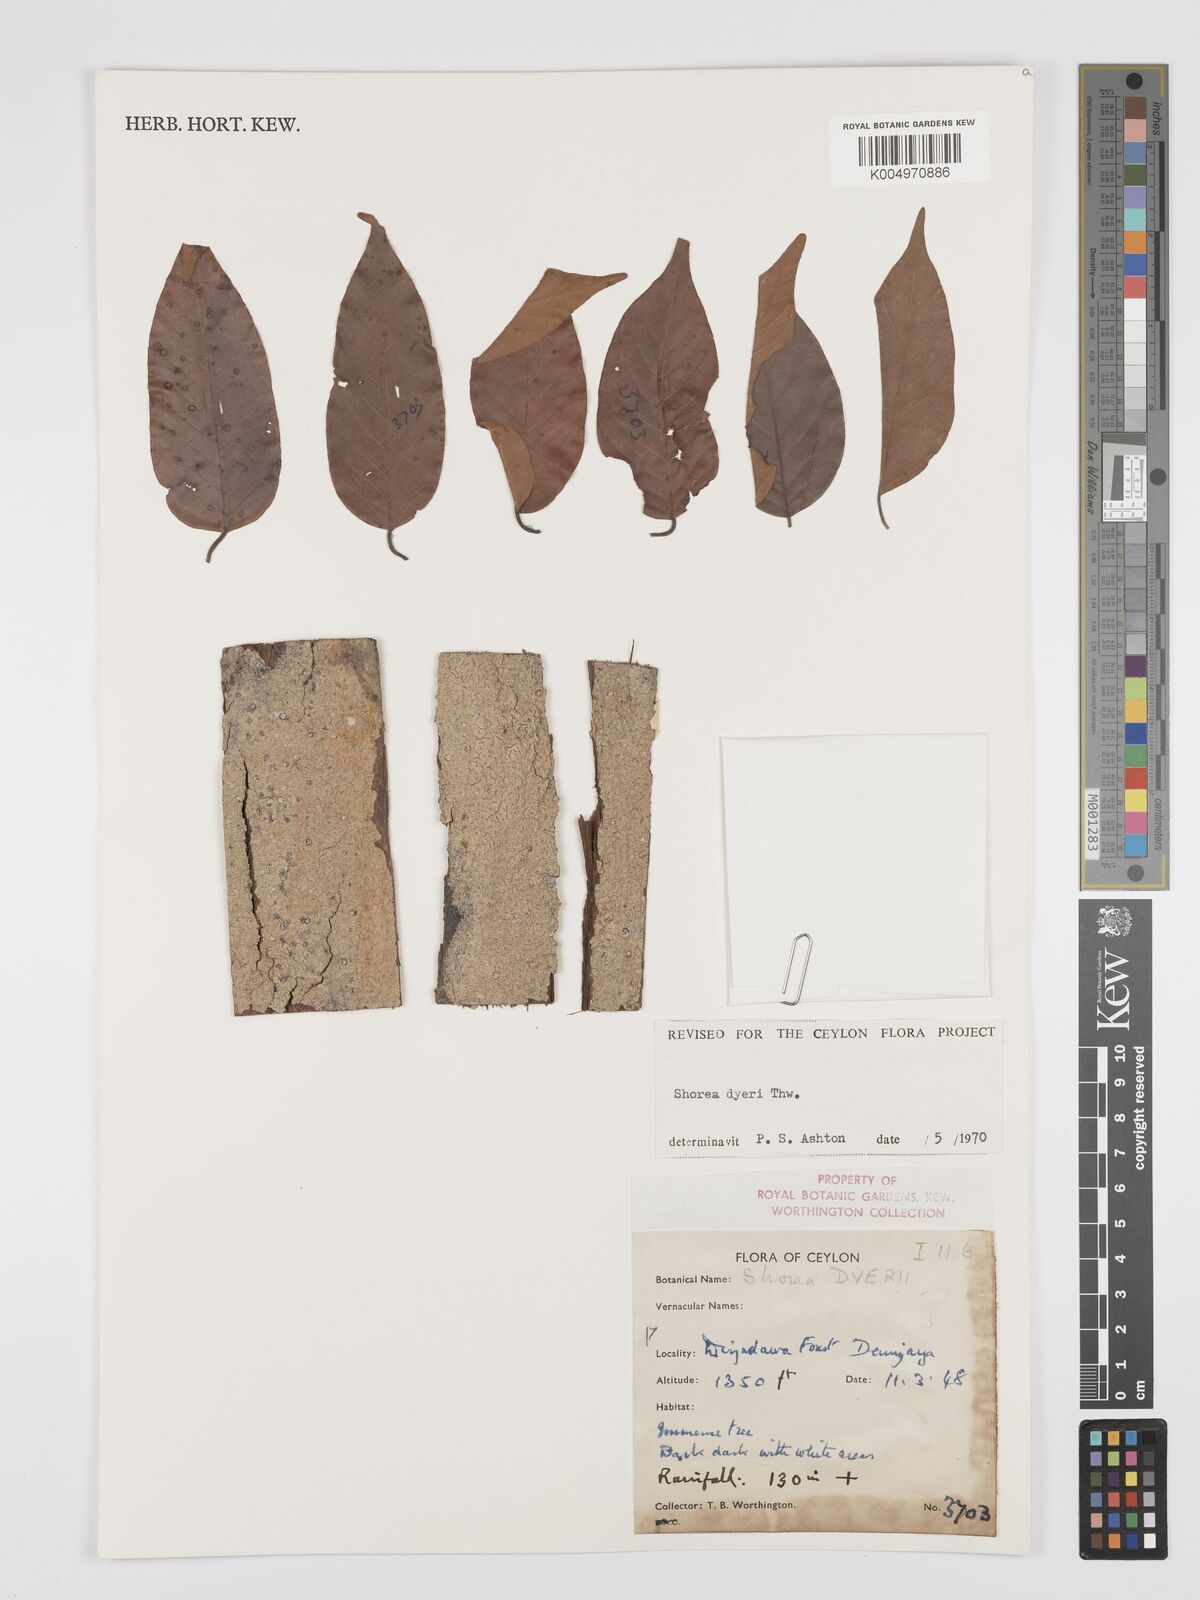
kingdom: Plantae
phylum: Tracheophyta
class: Magnoliopsida
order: Malvales
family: Dipterocarpaceae
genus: Shorea
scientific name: Shorea dyeri
